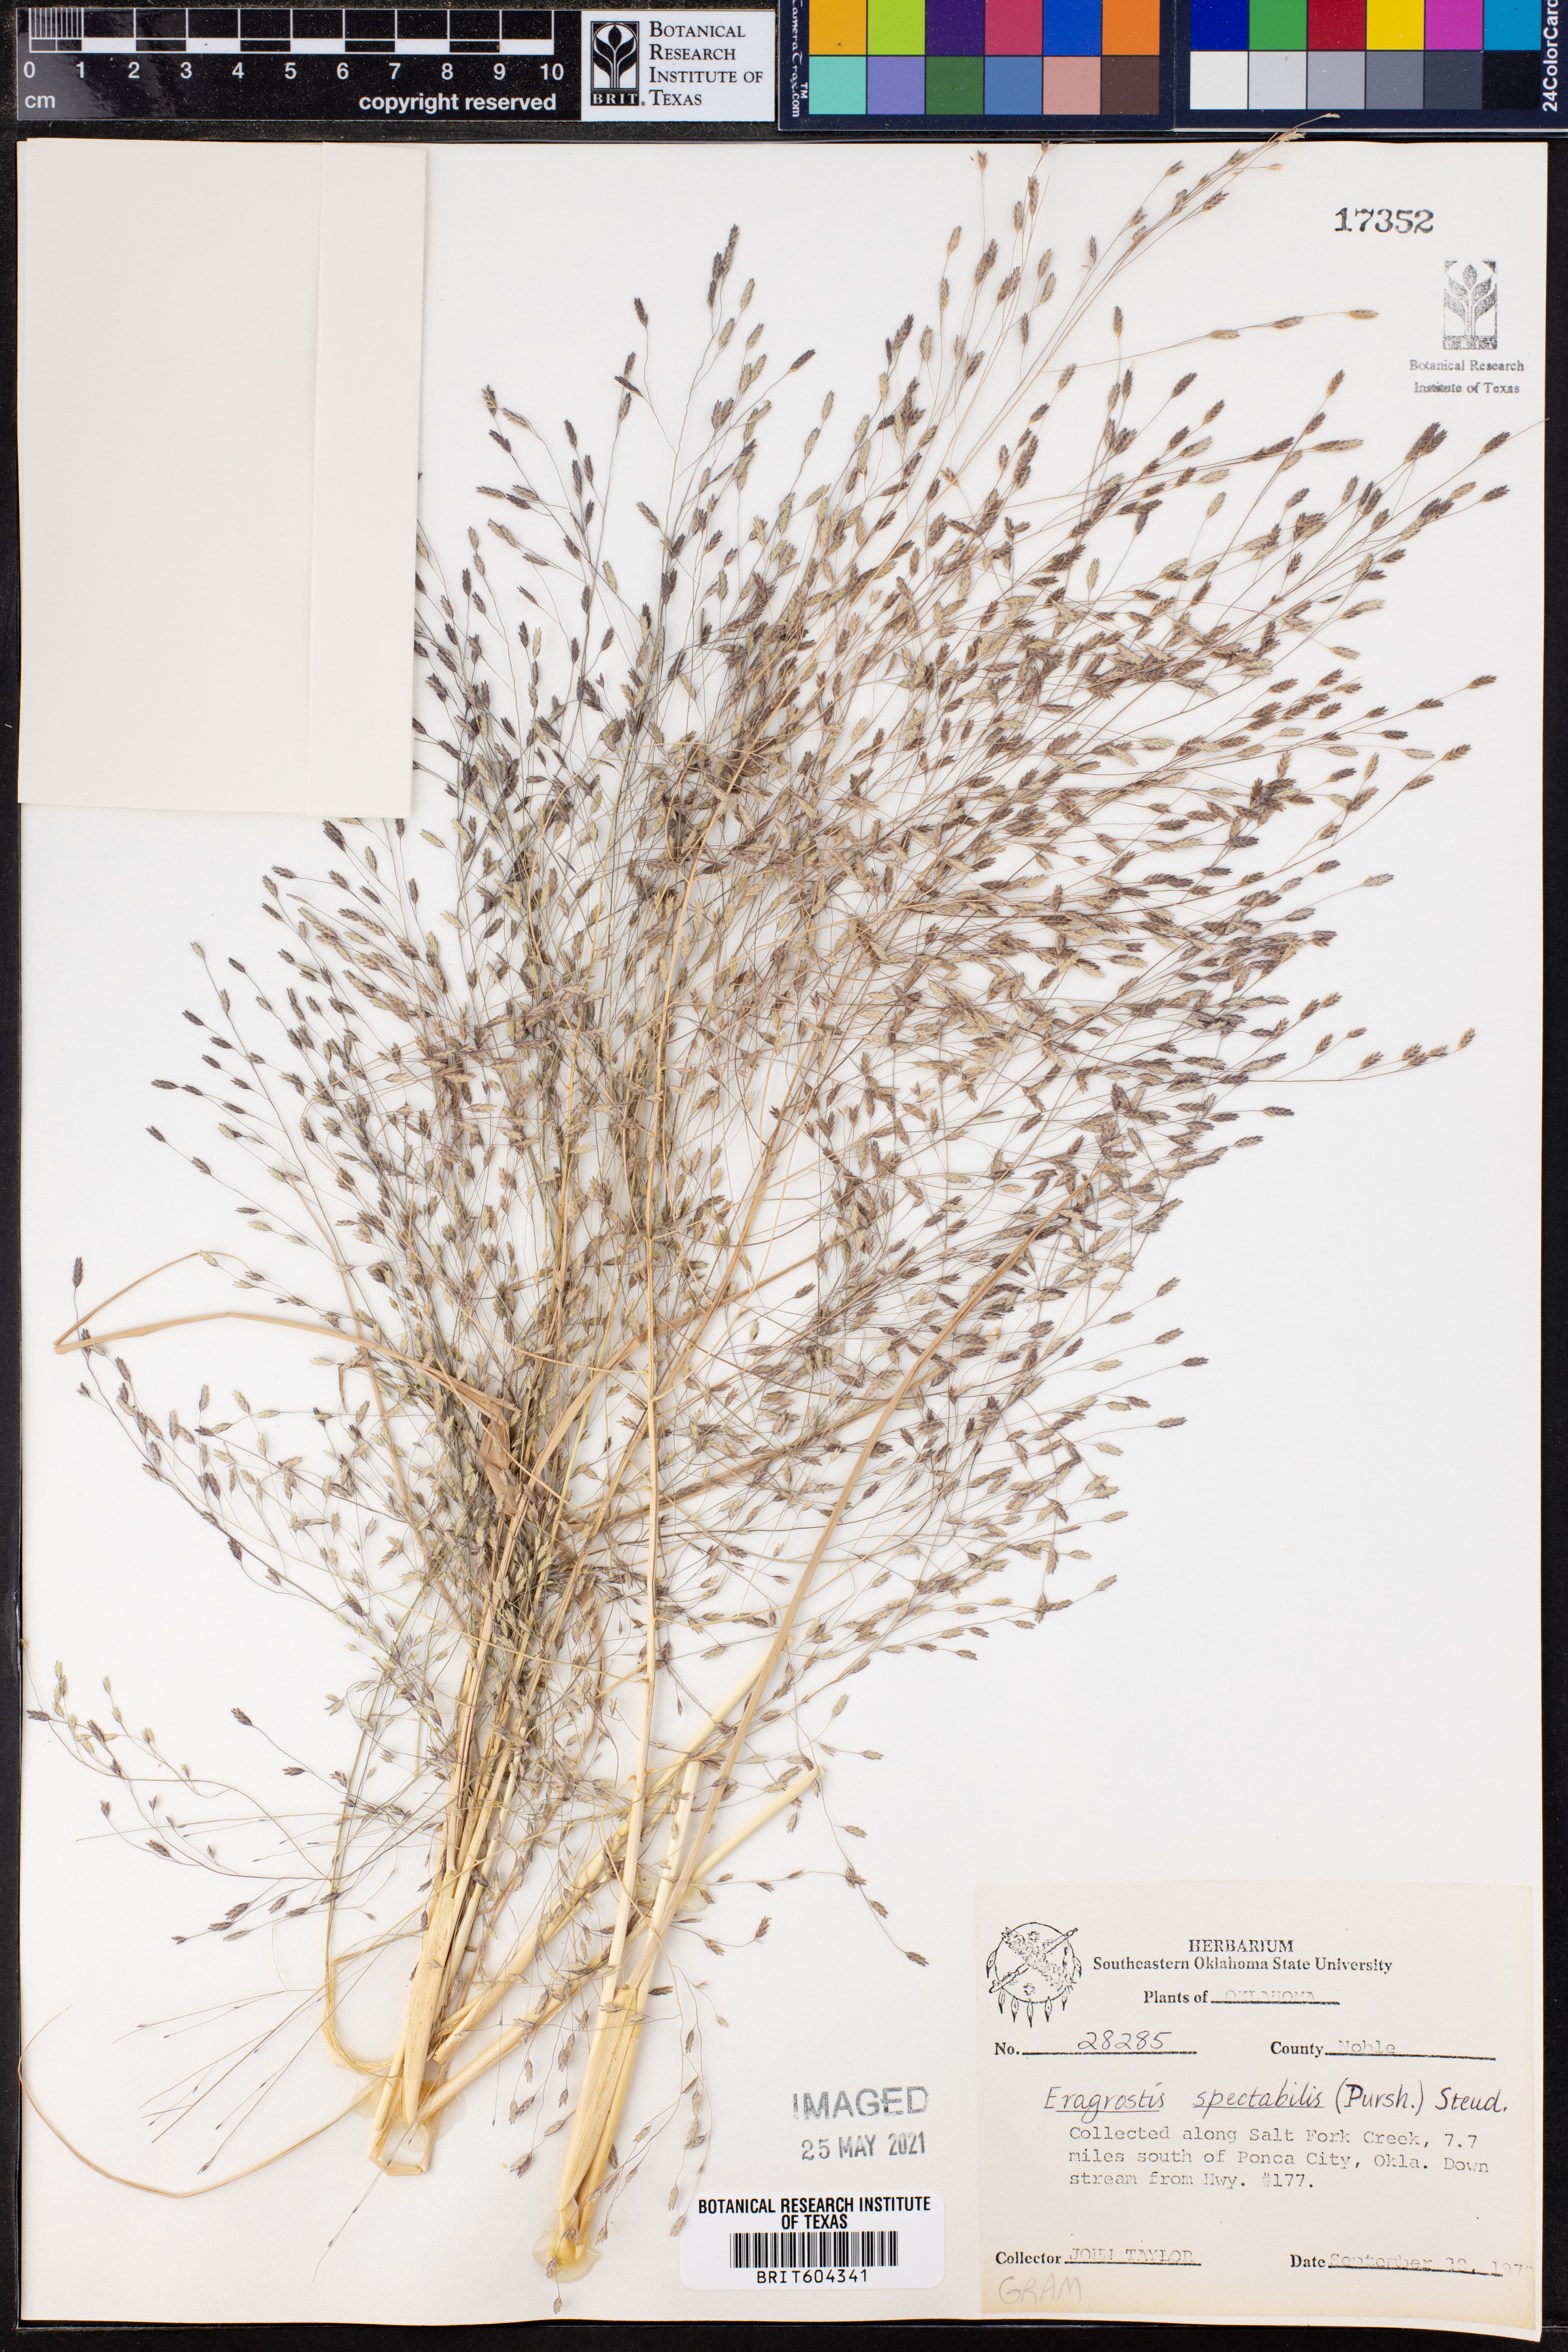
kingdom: Plantae
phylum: Tracheophyta
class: Liliopsida
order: Poales
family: Poaceae
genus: Eragrostis
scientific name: Eragrostis spectabilis
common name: Petticoat-climber
